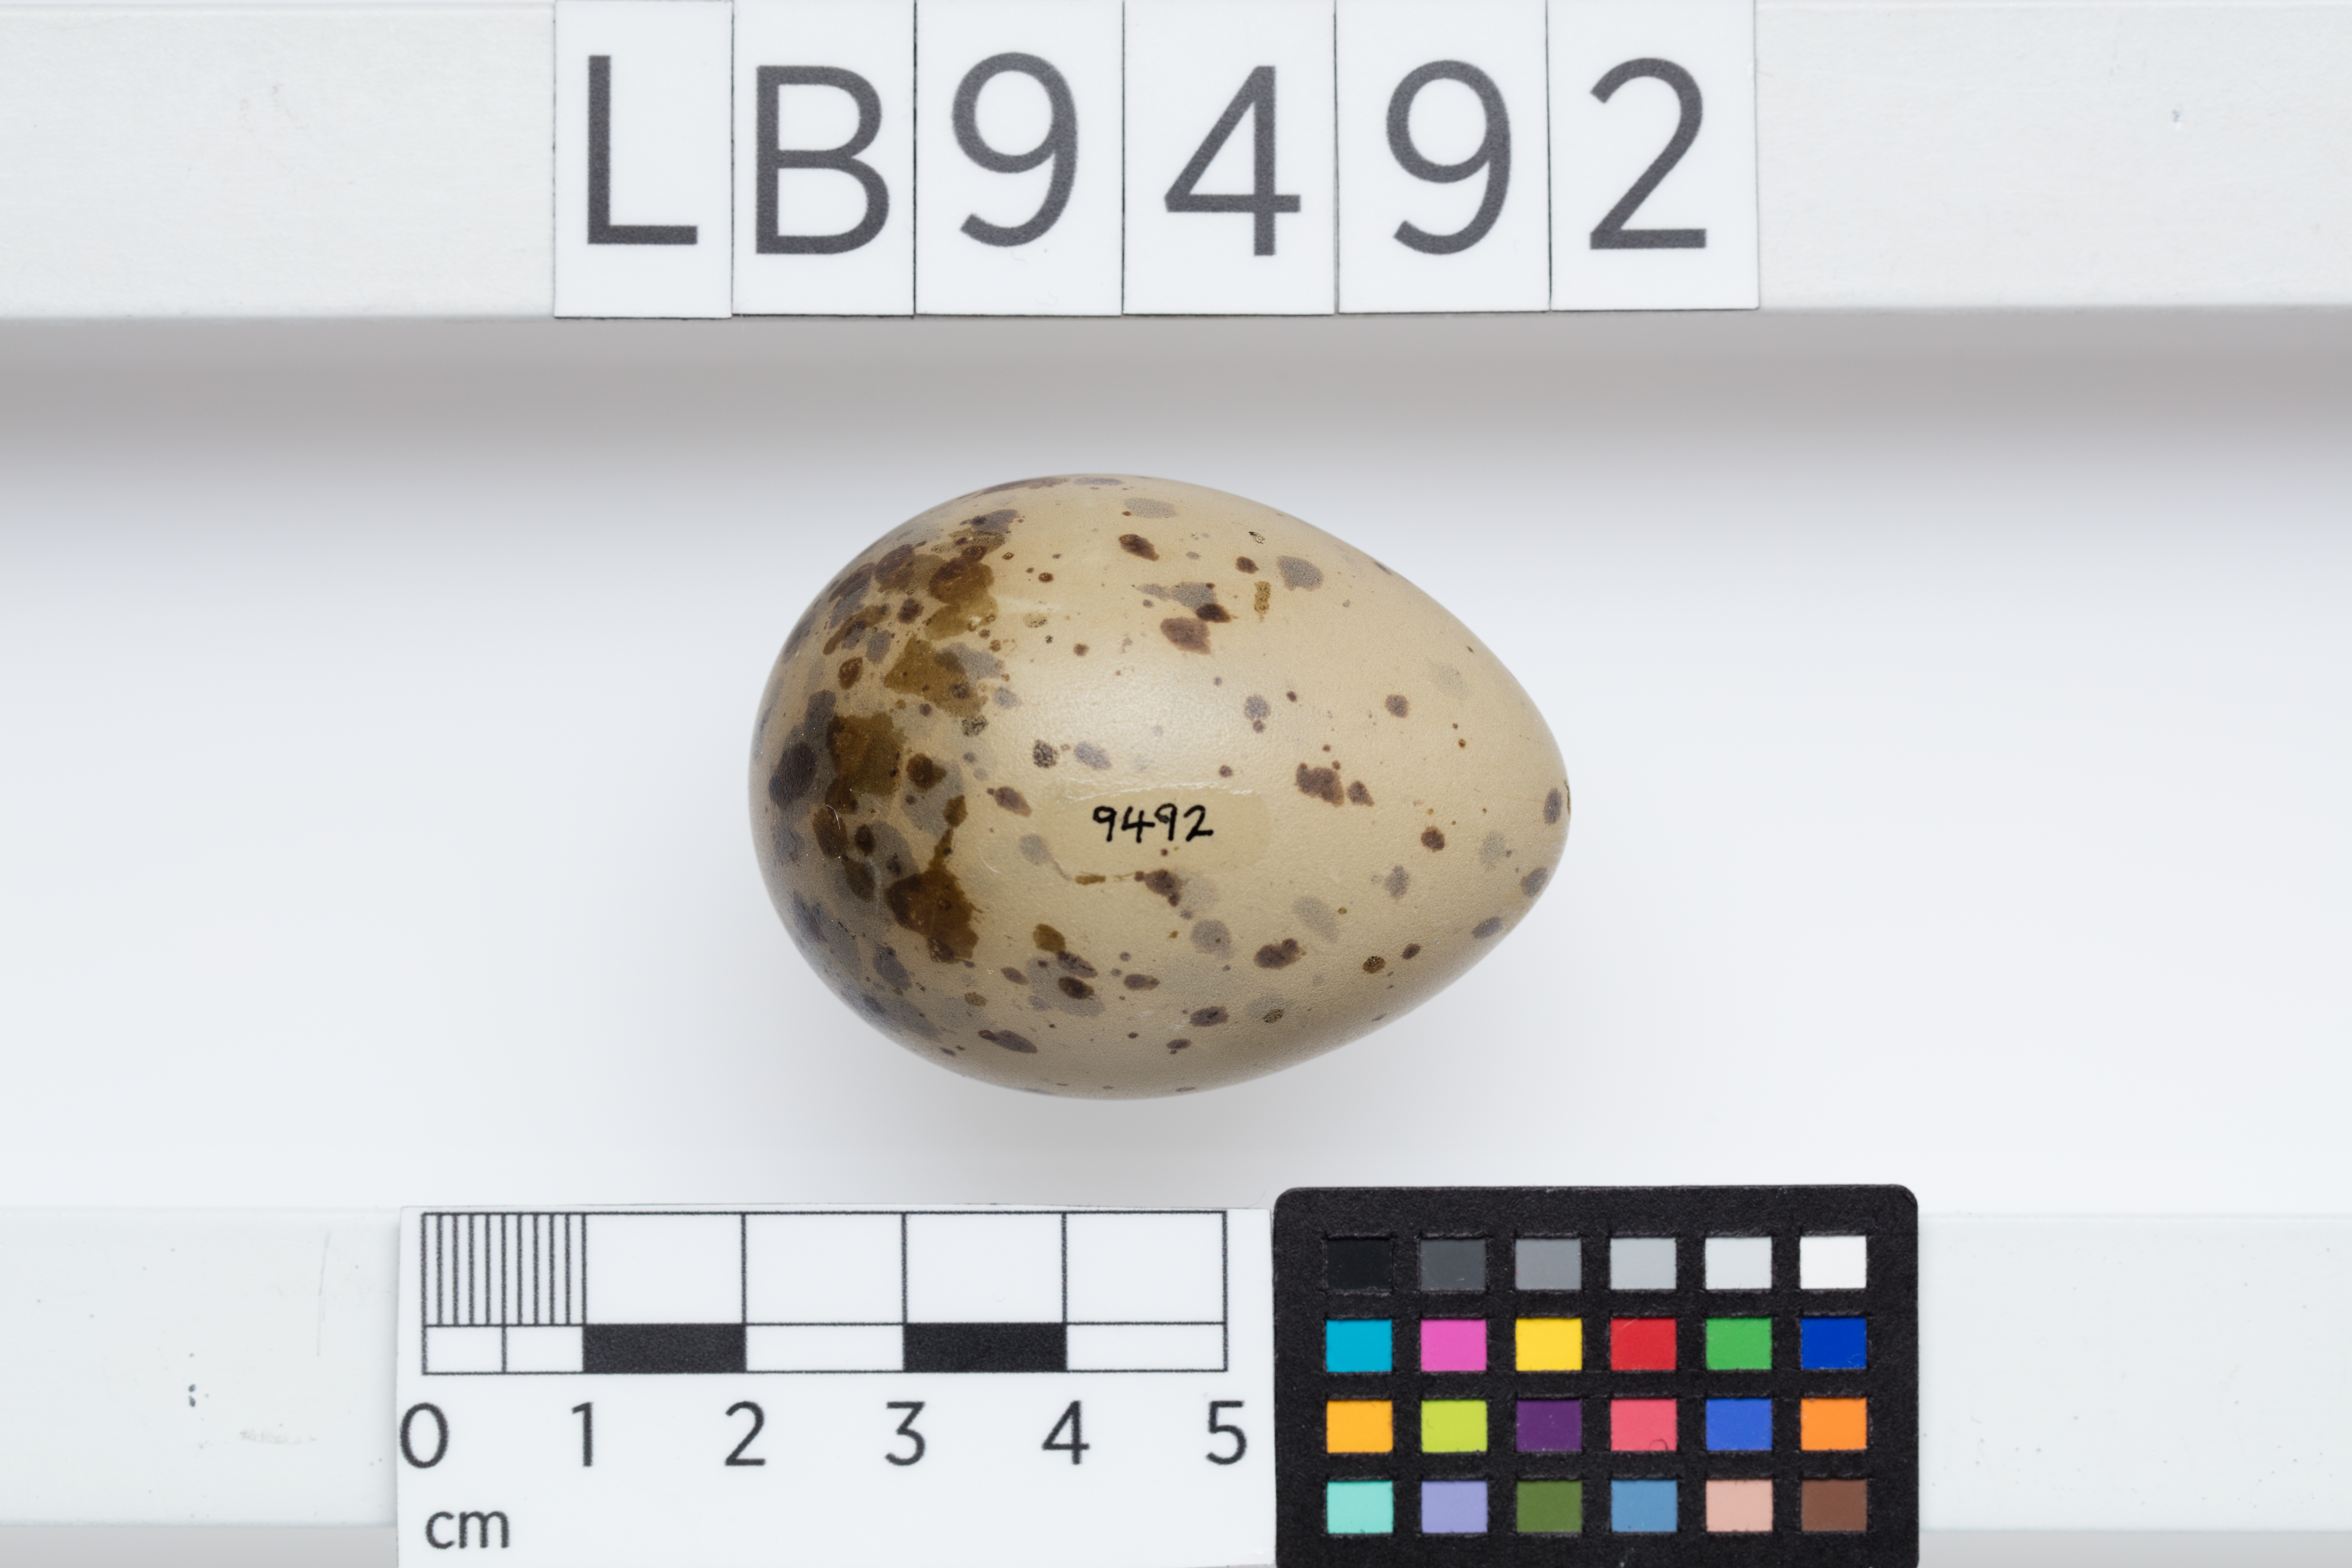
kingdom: Animalia
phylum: Chordata
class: Aves
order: Charadriiformes
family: Laridae
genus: Chroicocephalus
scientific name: Chroicocephalus novaehollandiae
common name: Silver gull
